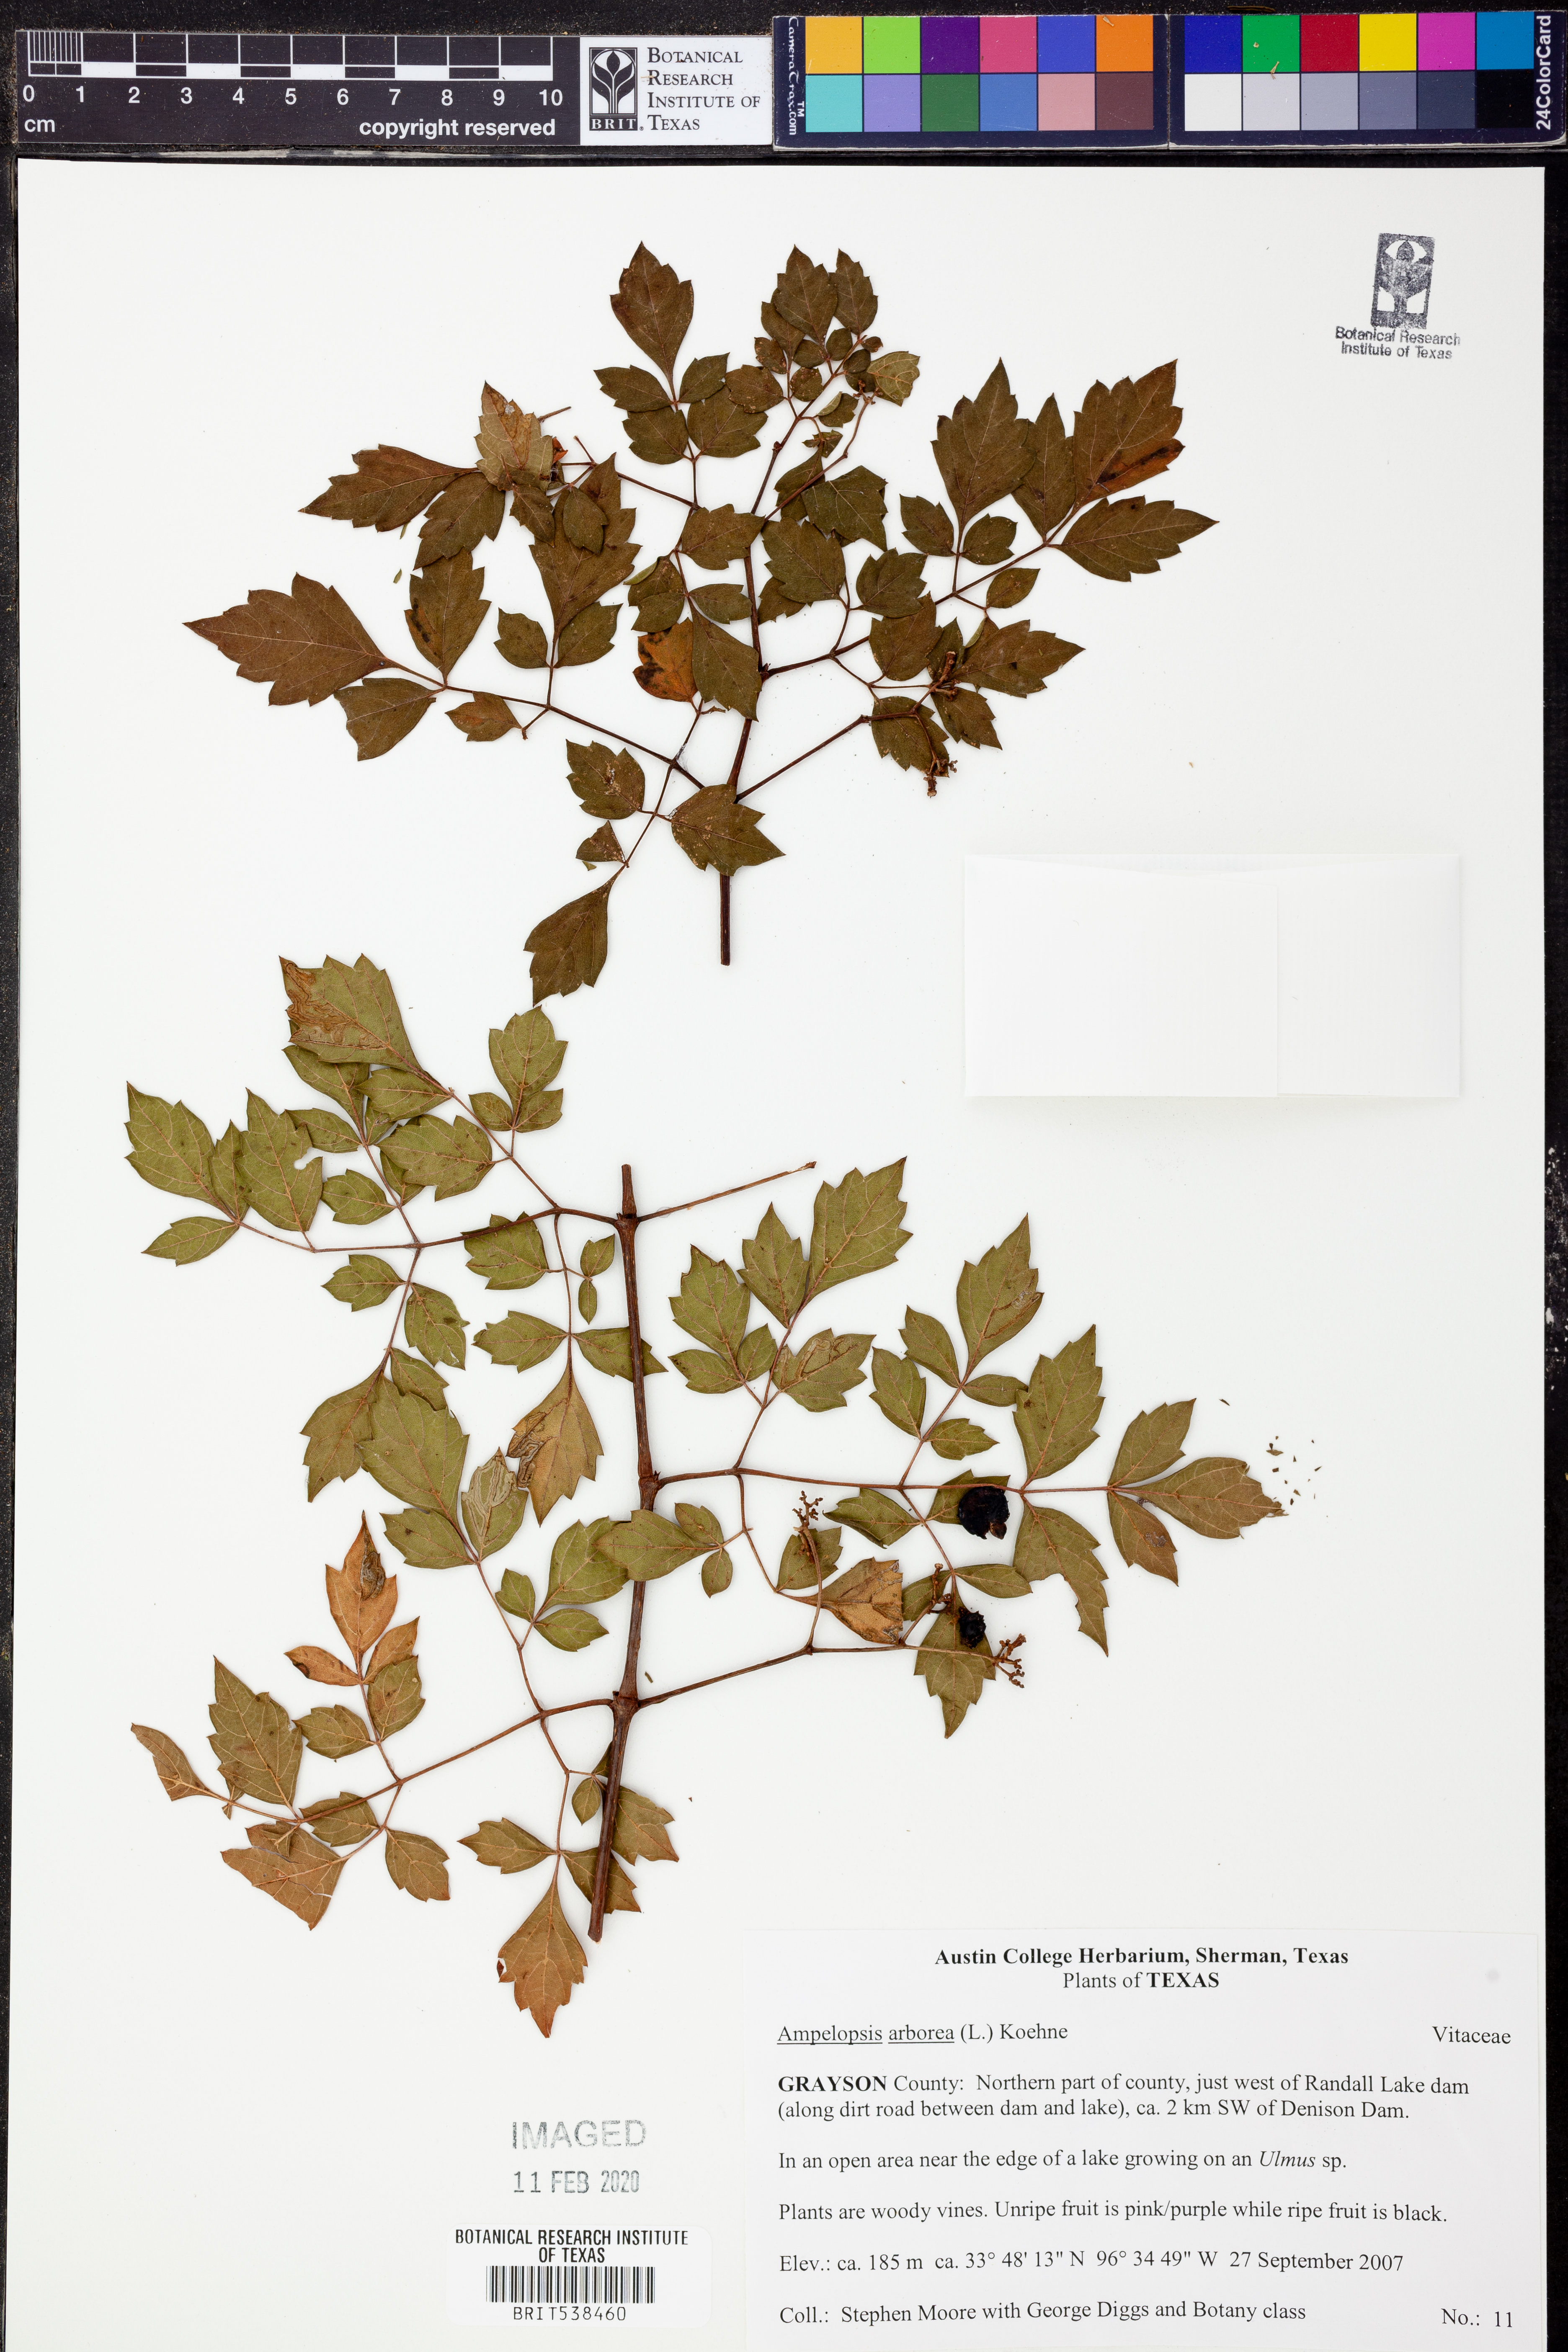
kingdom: Plantae
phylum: Tracheophyta
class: Magnoliopsida
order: Vitales
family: Vitaceae
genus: Nekemias
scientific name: Nekemias arborea
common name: Peppervine
